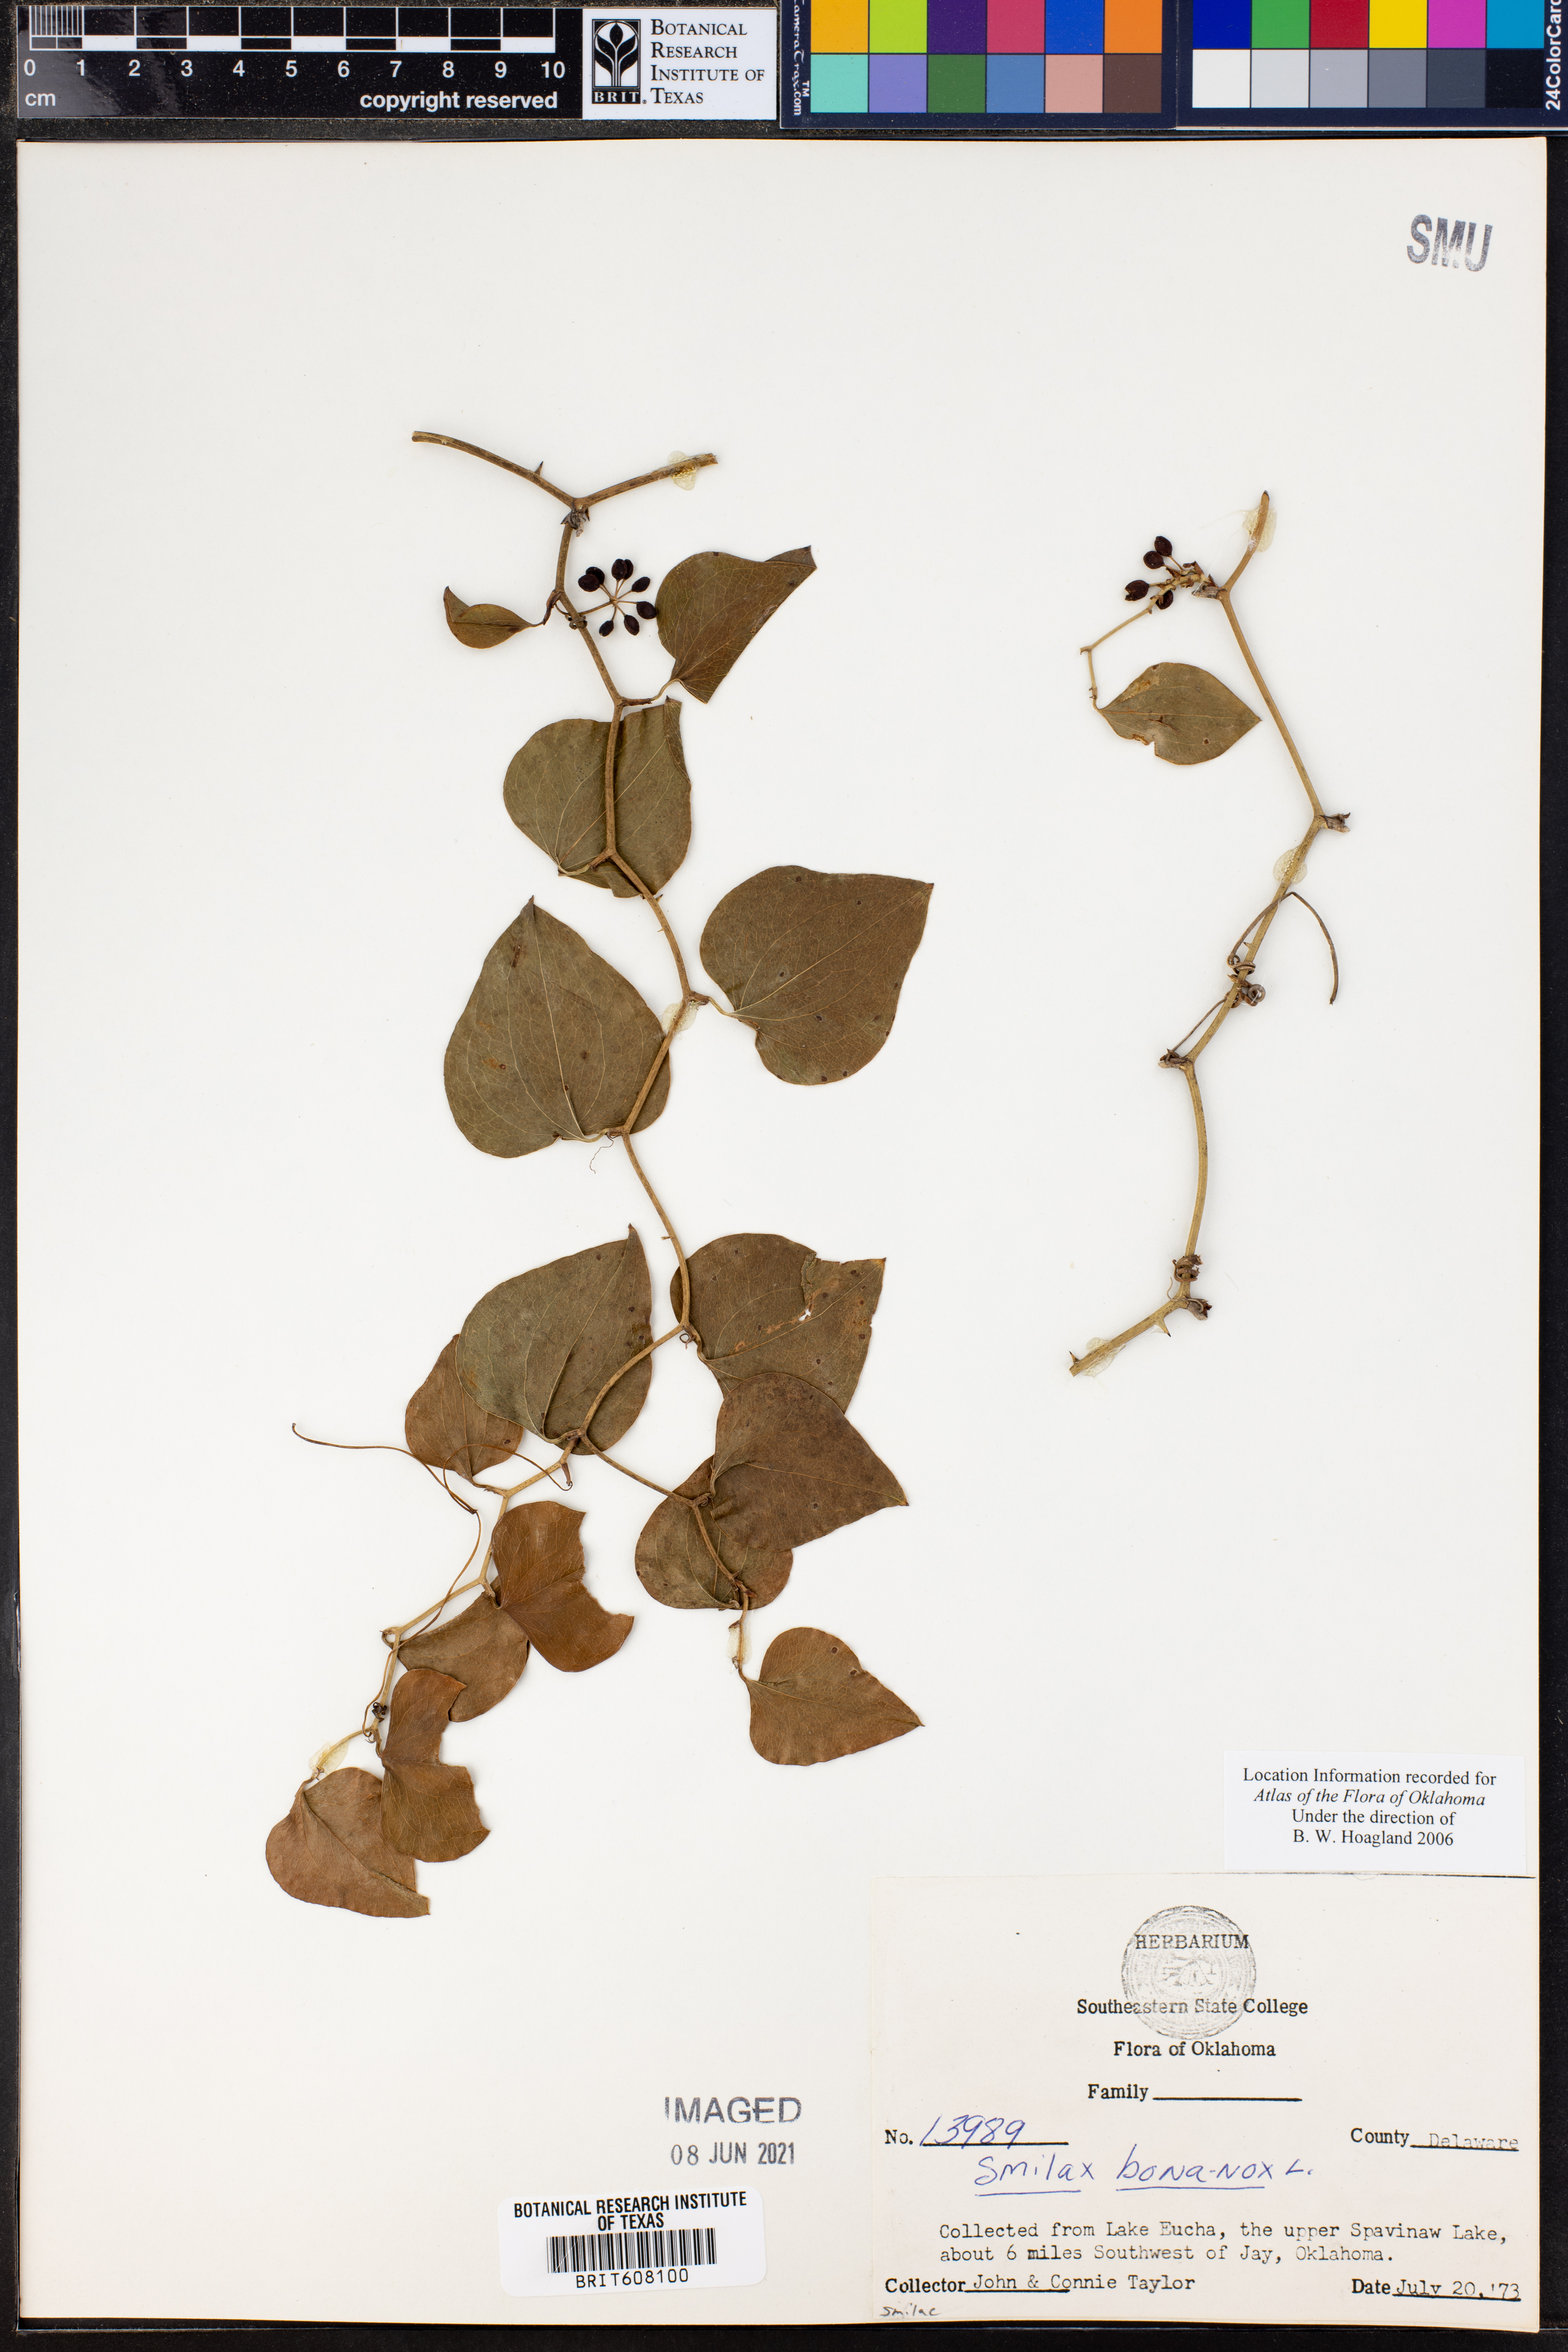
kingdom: Plantae
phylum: Tracheophyta
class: Liliopsida
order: Liliales
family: Smilacaceae
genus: Smilax
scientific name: Smilax bona-nox
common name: Catbrier
